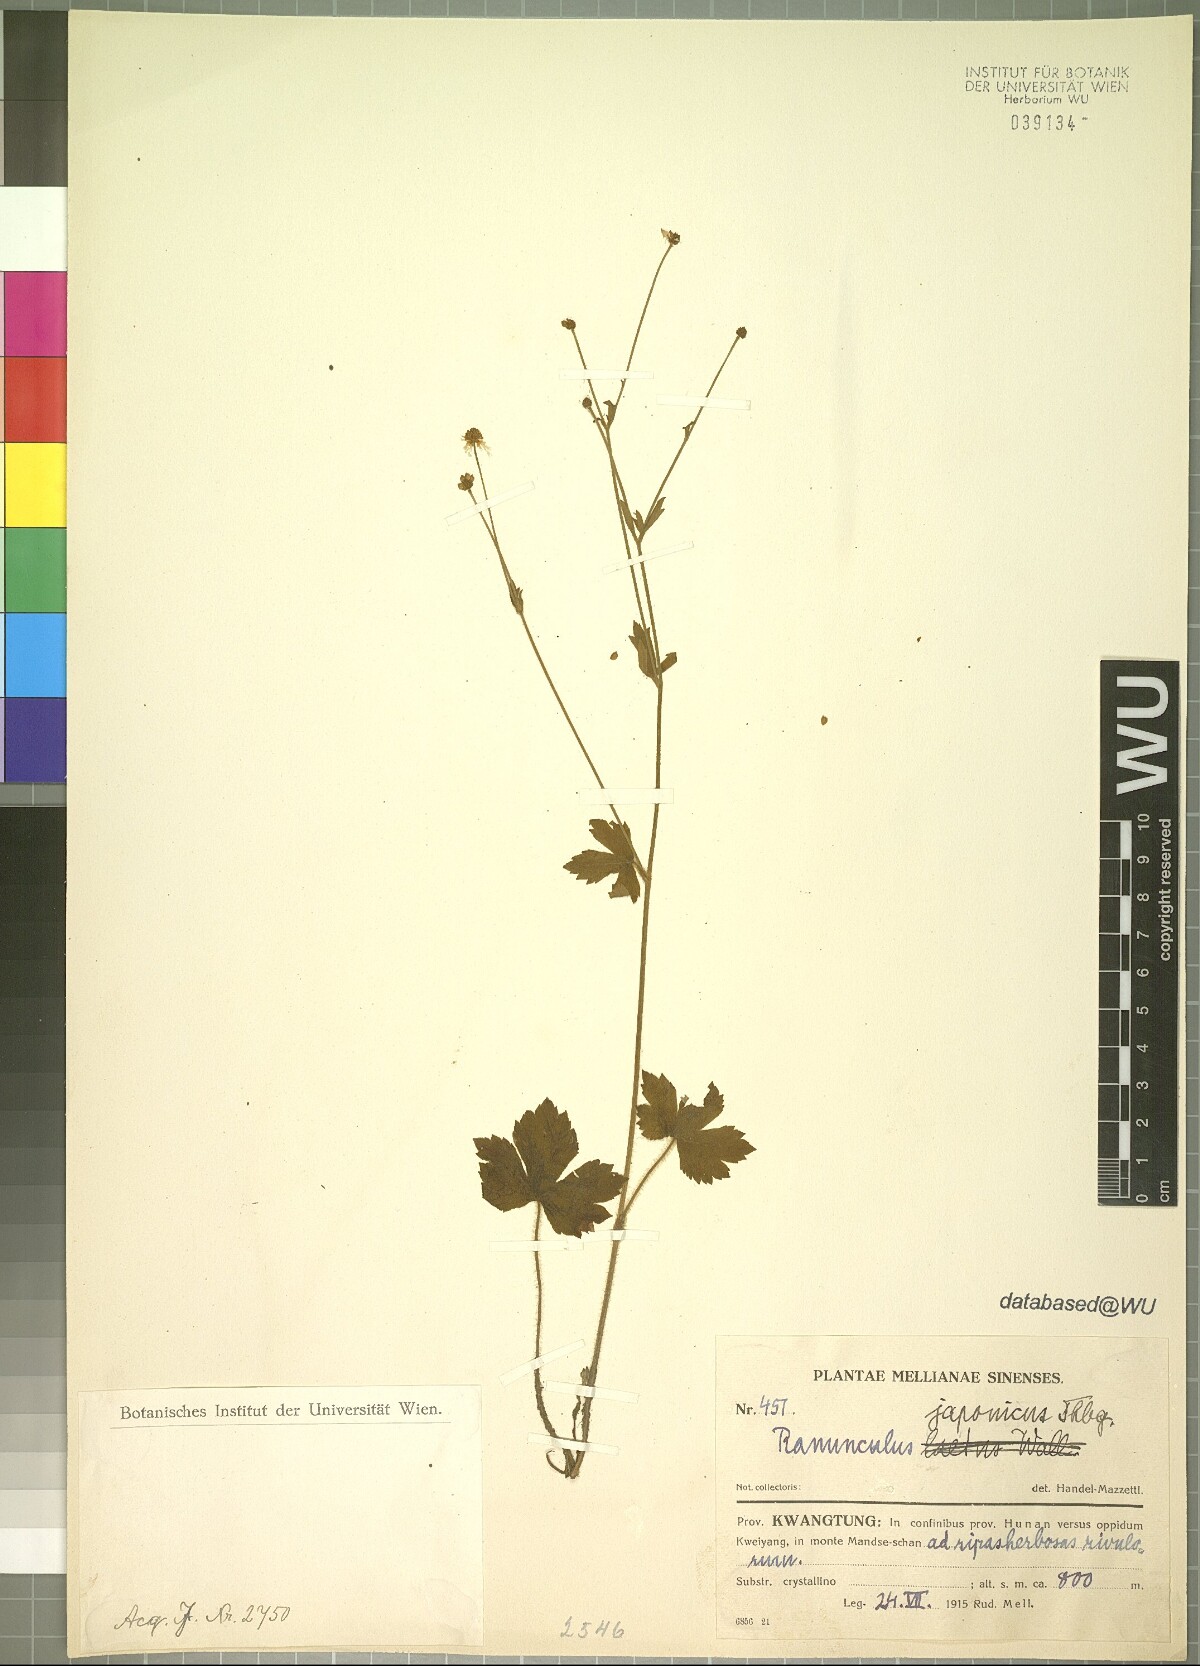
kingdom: Plantae
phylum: Tracheophyta
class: Magnoliopsida
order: Ranunculales
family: Ranunculaceae
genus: Ranunculus
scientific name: Ranunculus japonicus
